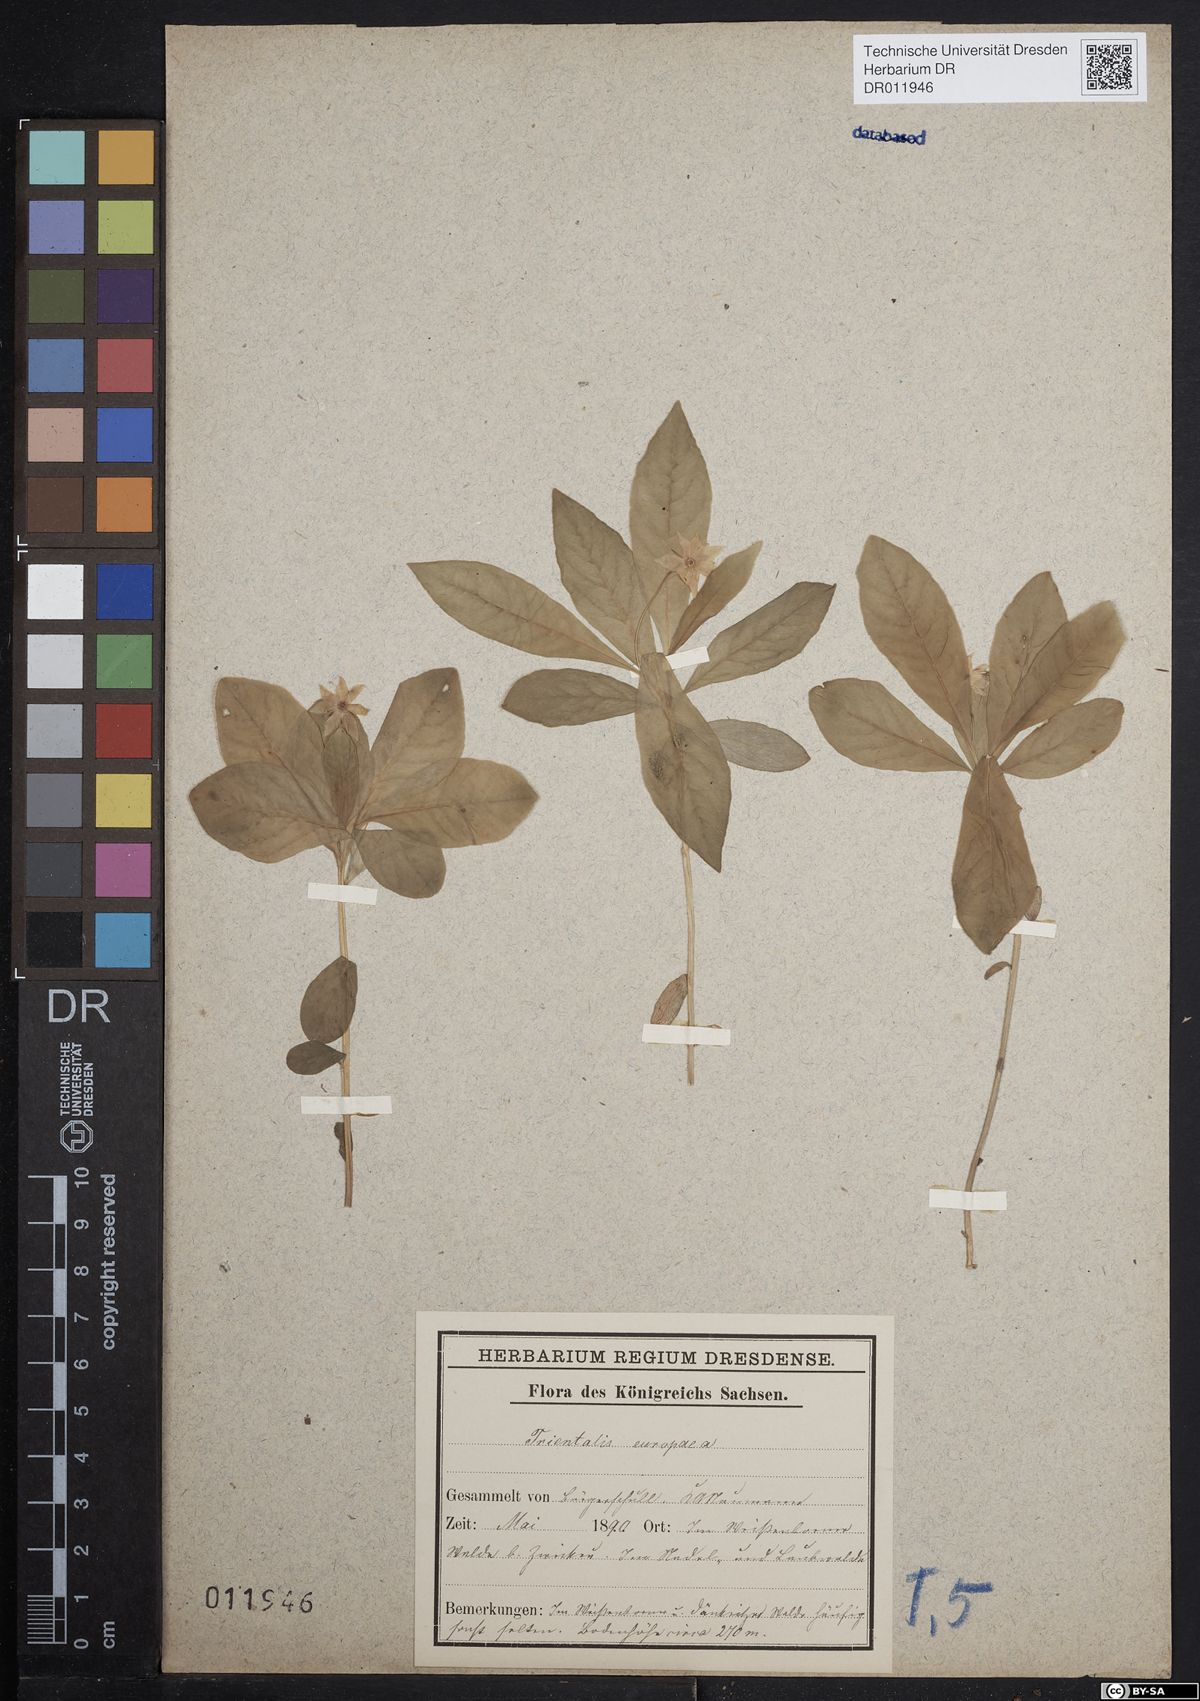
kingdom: Plantae
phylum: Tracheophyta
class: Magnoliopsida
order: Ericales
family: Primulaceae
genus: Lysimachia
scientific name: Lysimachia europaea
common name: Arctic starflower
